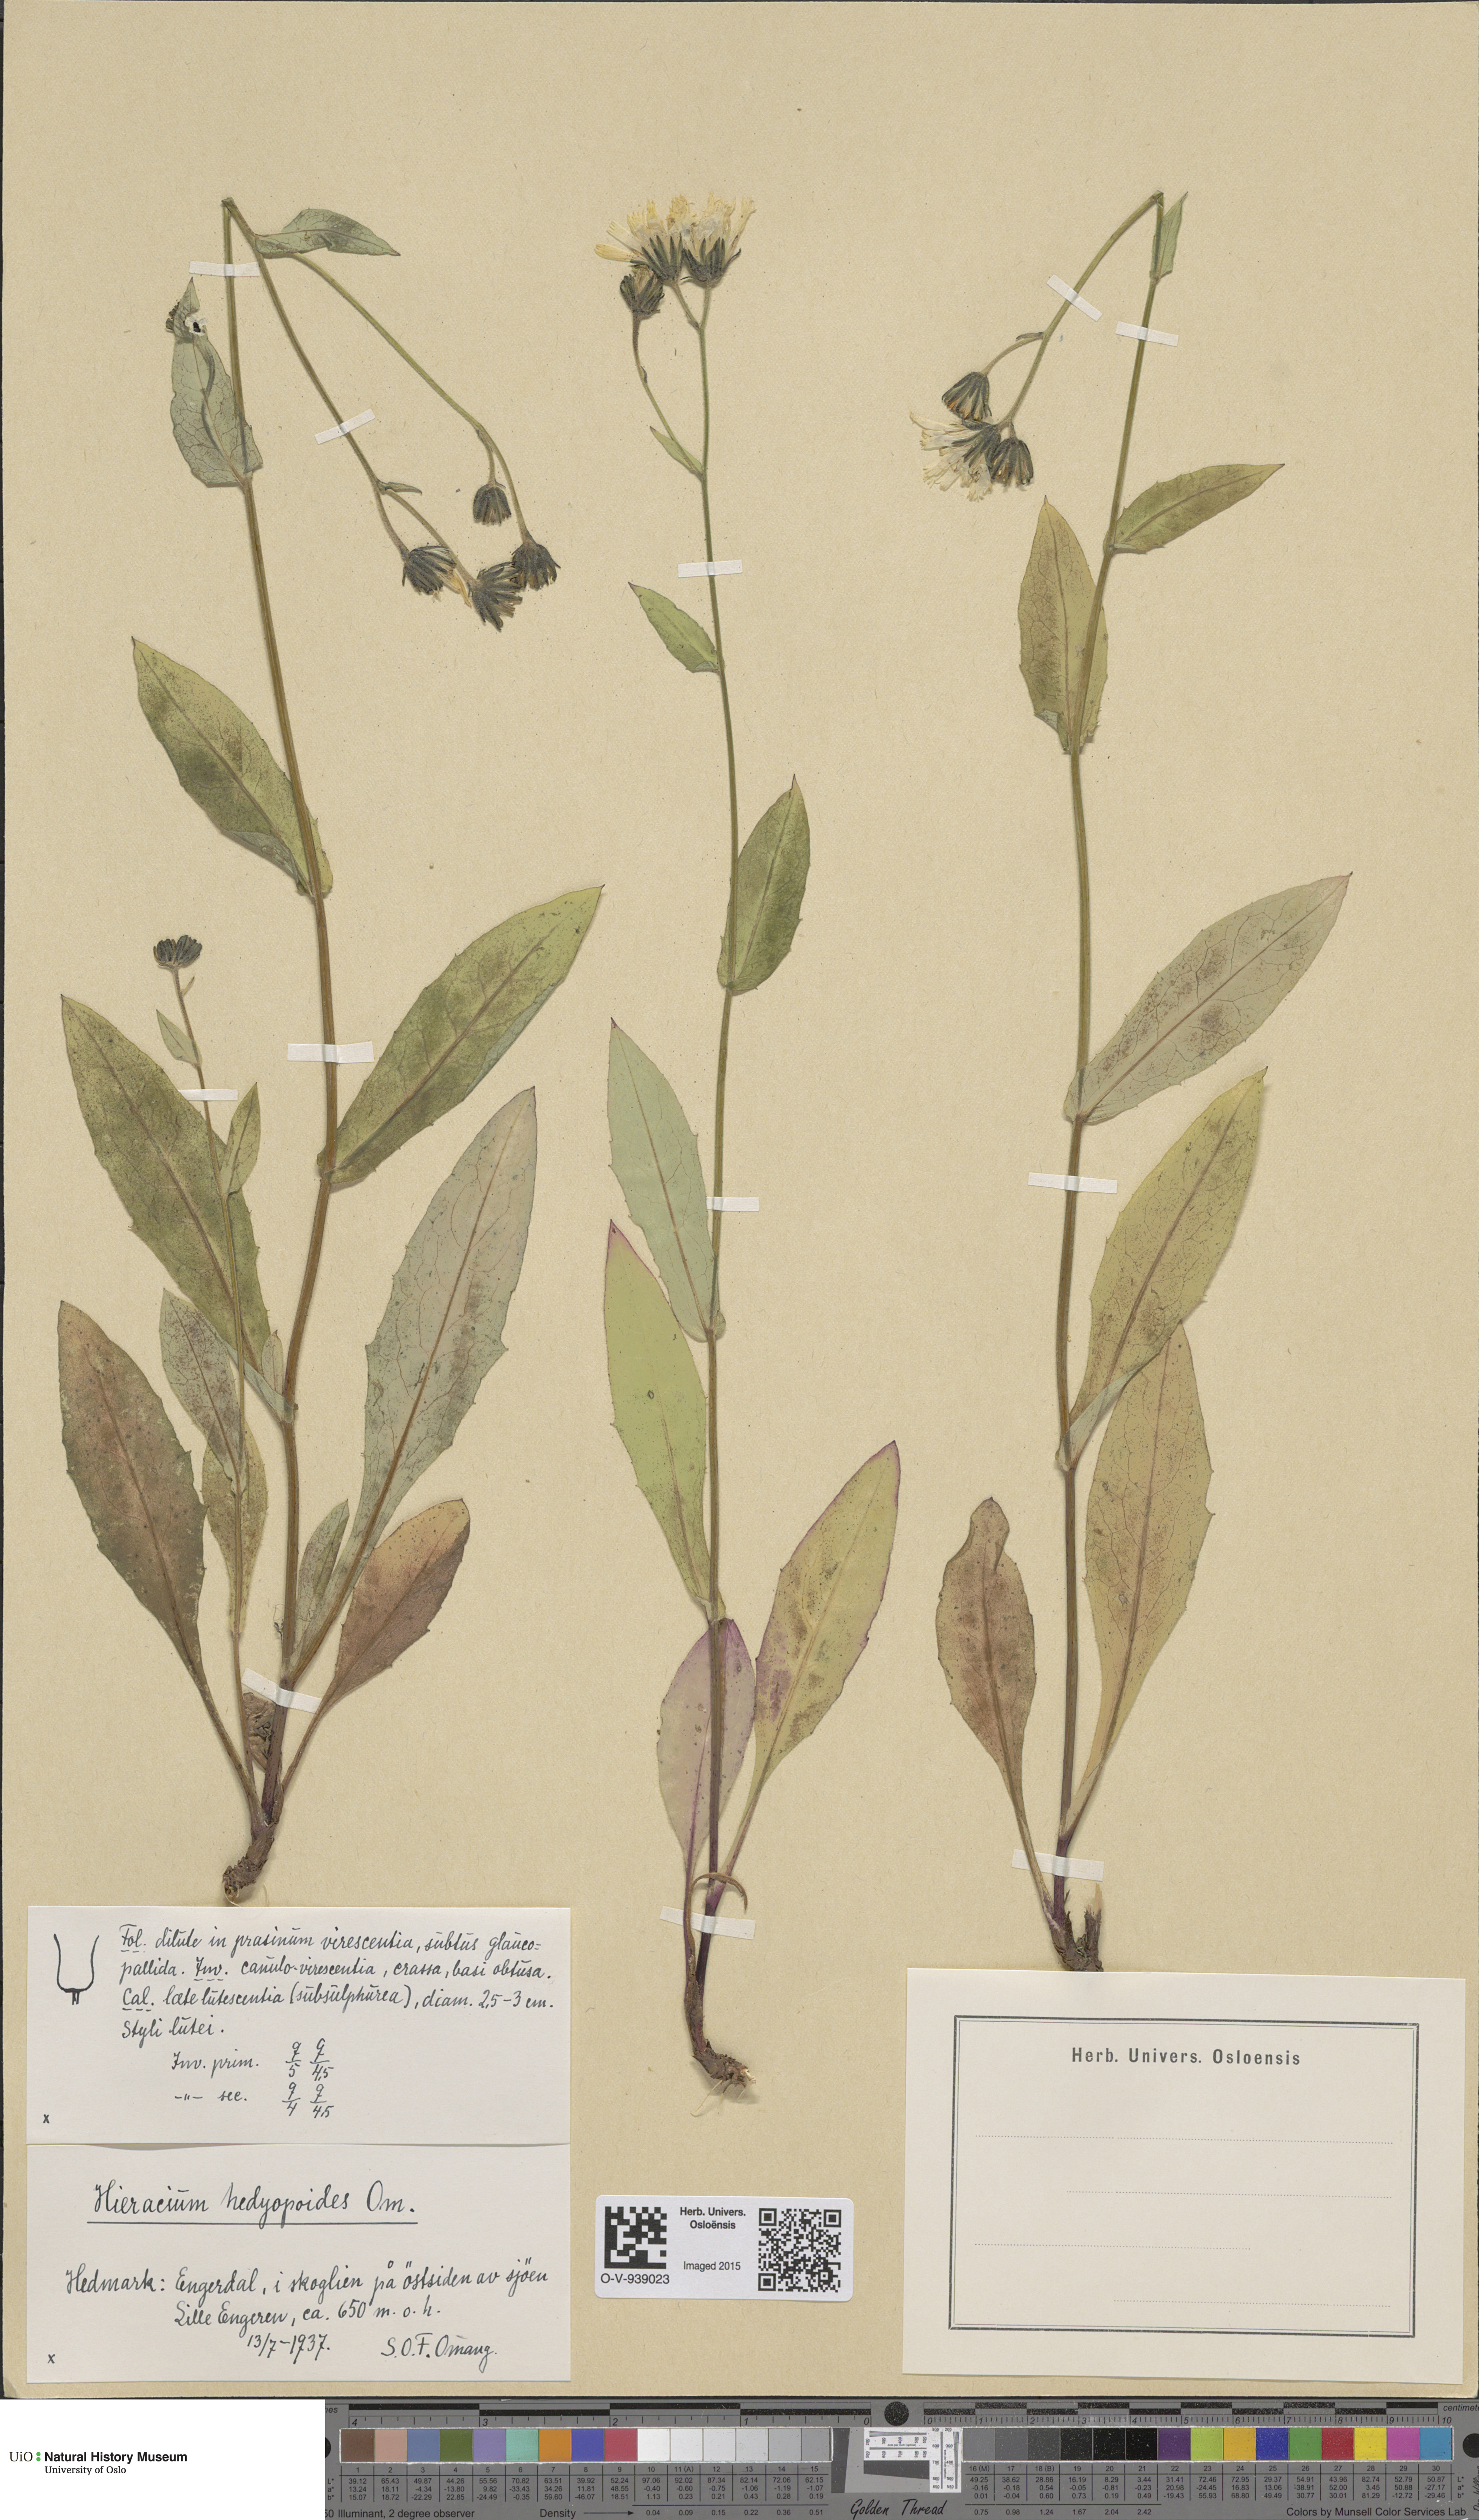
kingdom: Plantae
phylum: Tracheophyta
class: Magnoliopsida
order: Asterales
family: Asteraceae
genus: Hieracium
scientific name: Hieracium
